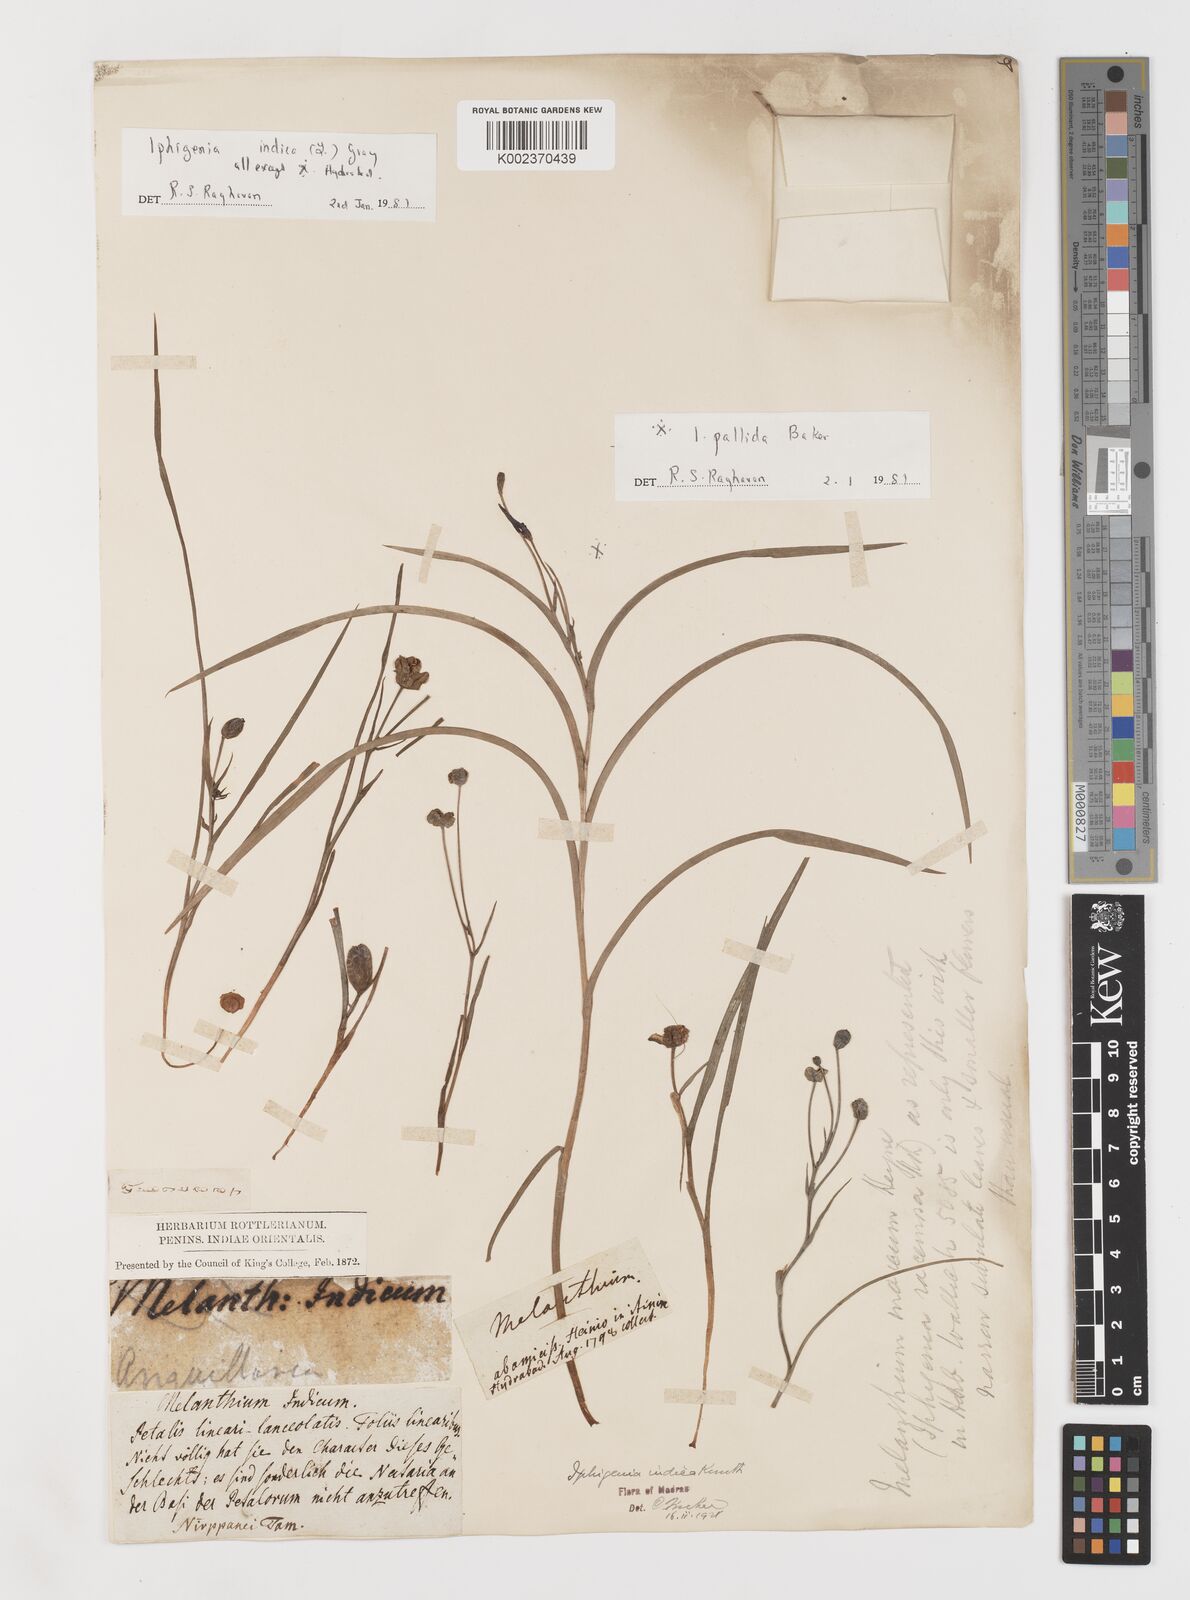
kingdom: Plantae
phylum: Tracheophyta
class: Liliopsida
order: Liliales
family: Colchicaceae
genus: Iphigenia
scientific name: Iphigenia indica
